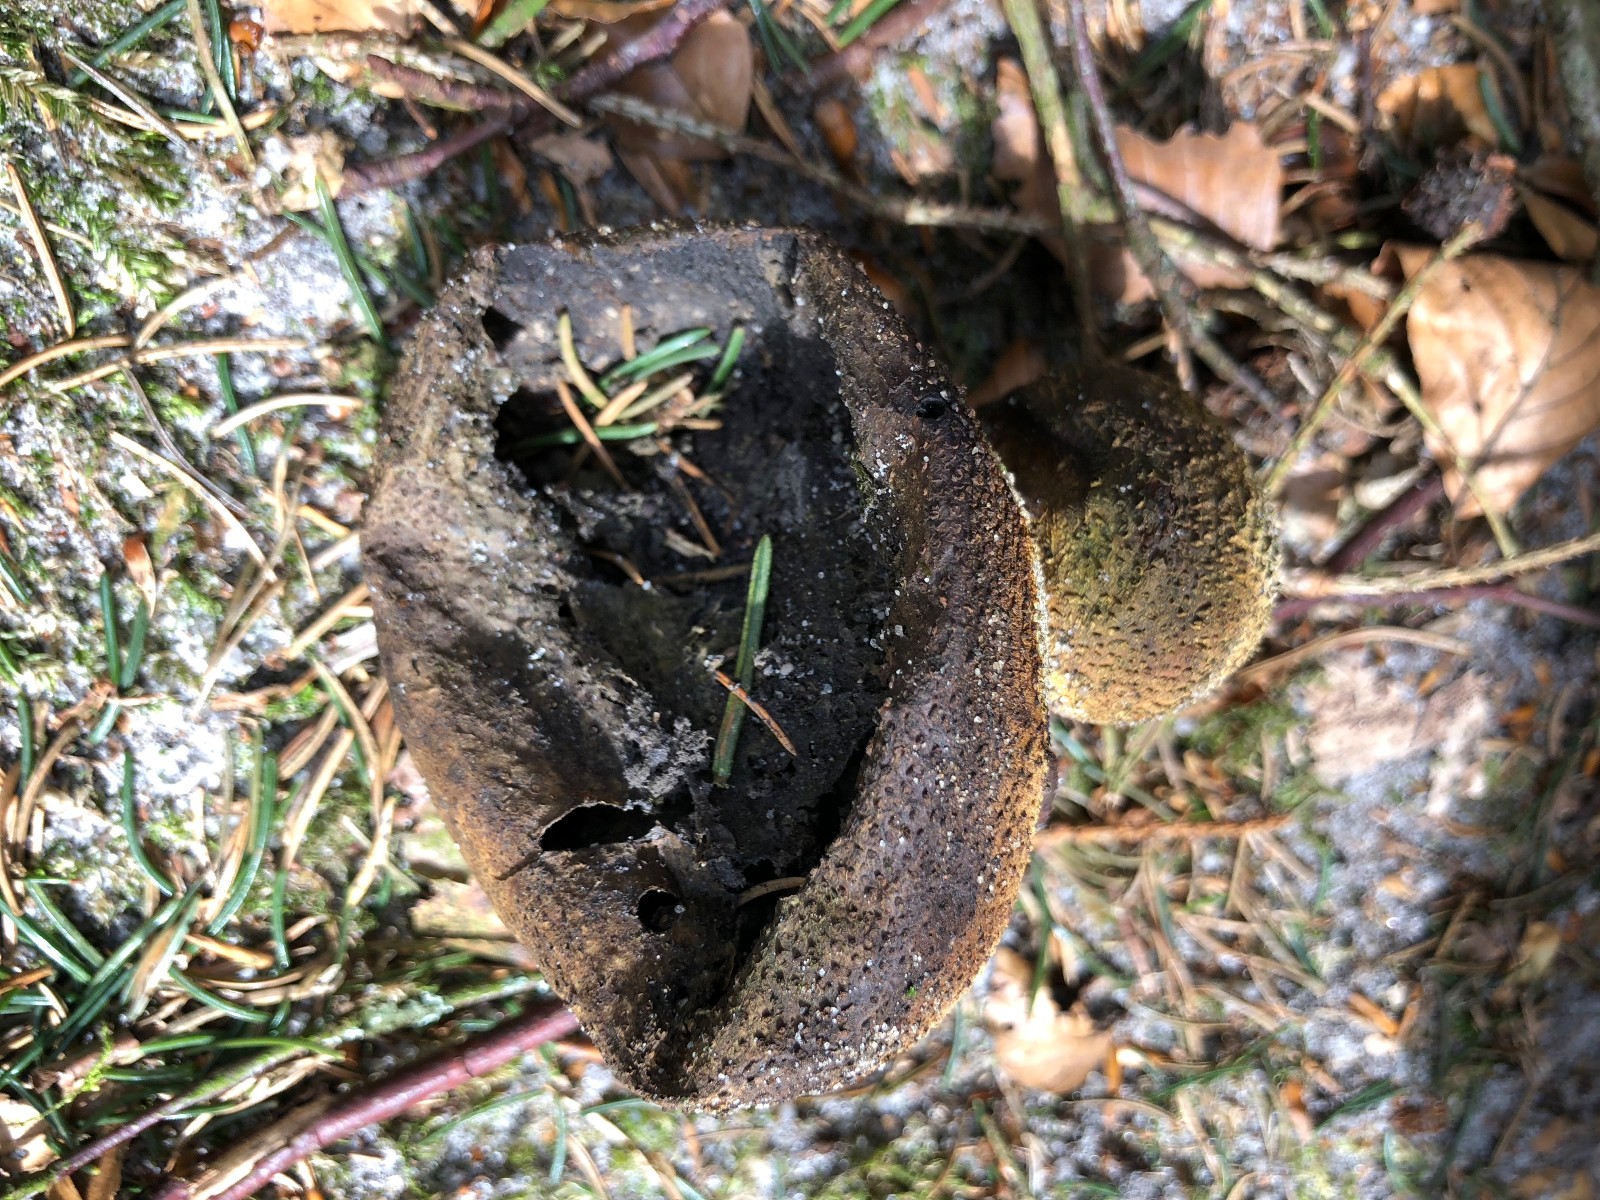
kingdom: Fungi
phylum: Basidiomycota
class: Agaricomycetes
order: Boletales
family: Sclerodermataceae
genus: Scleroderma
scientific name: Scleroderma citrinum
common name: almindelig bruskbold
